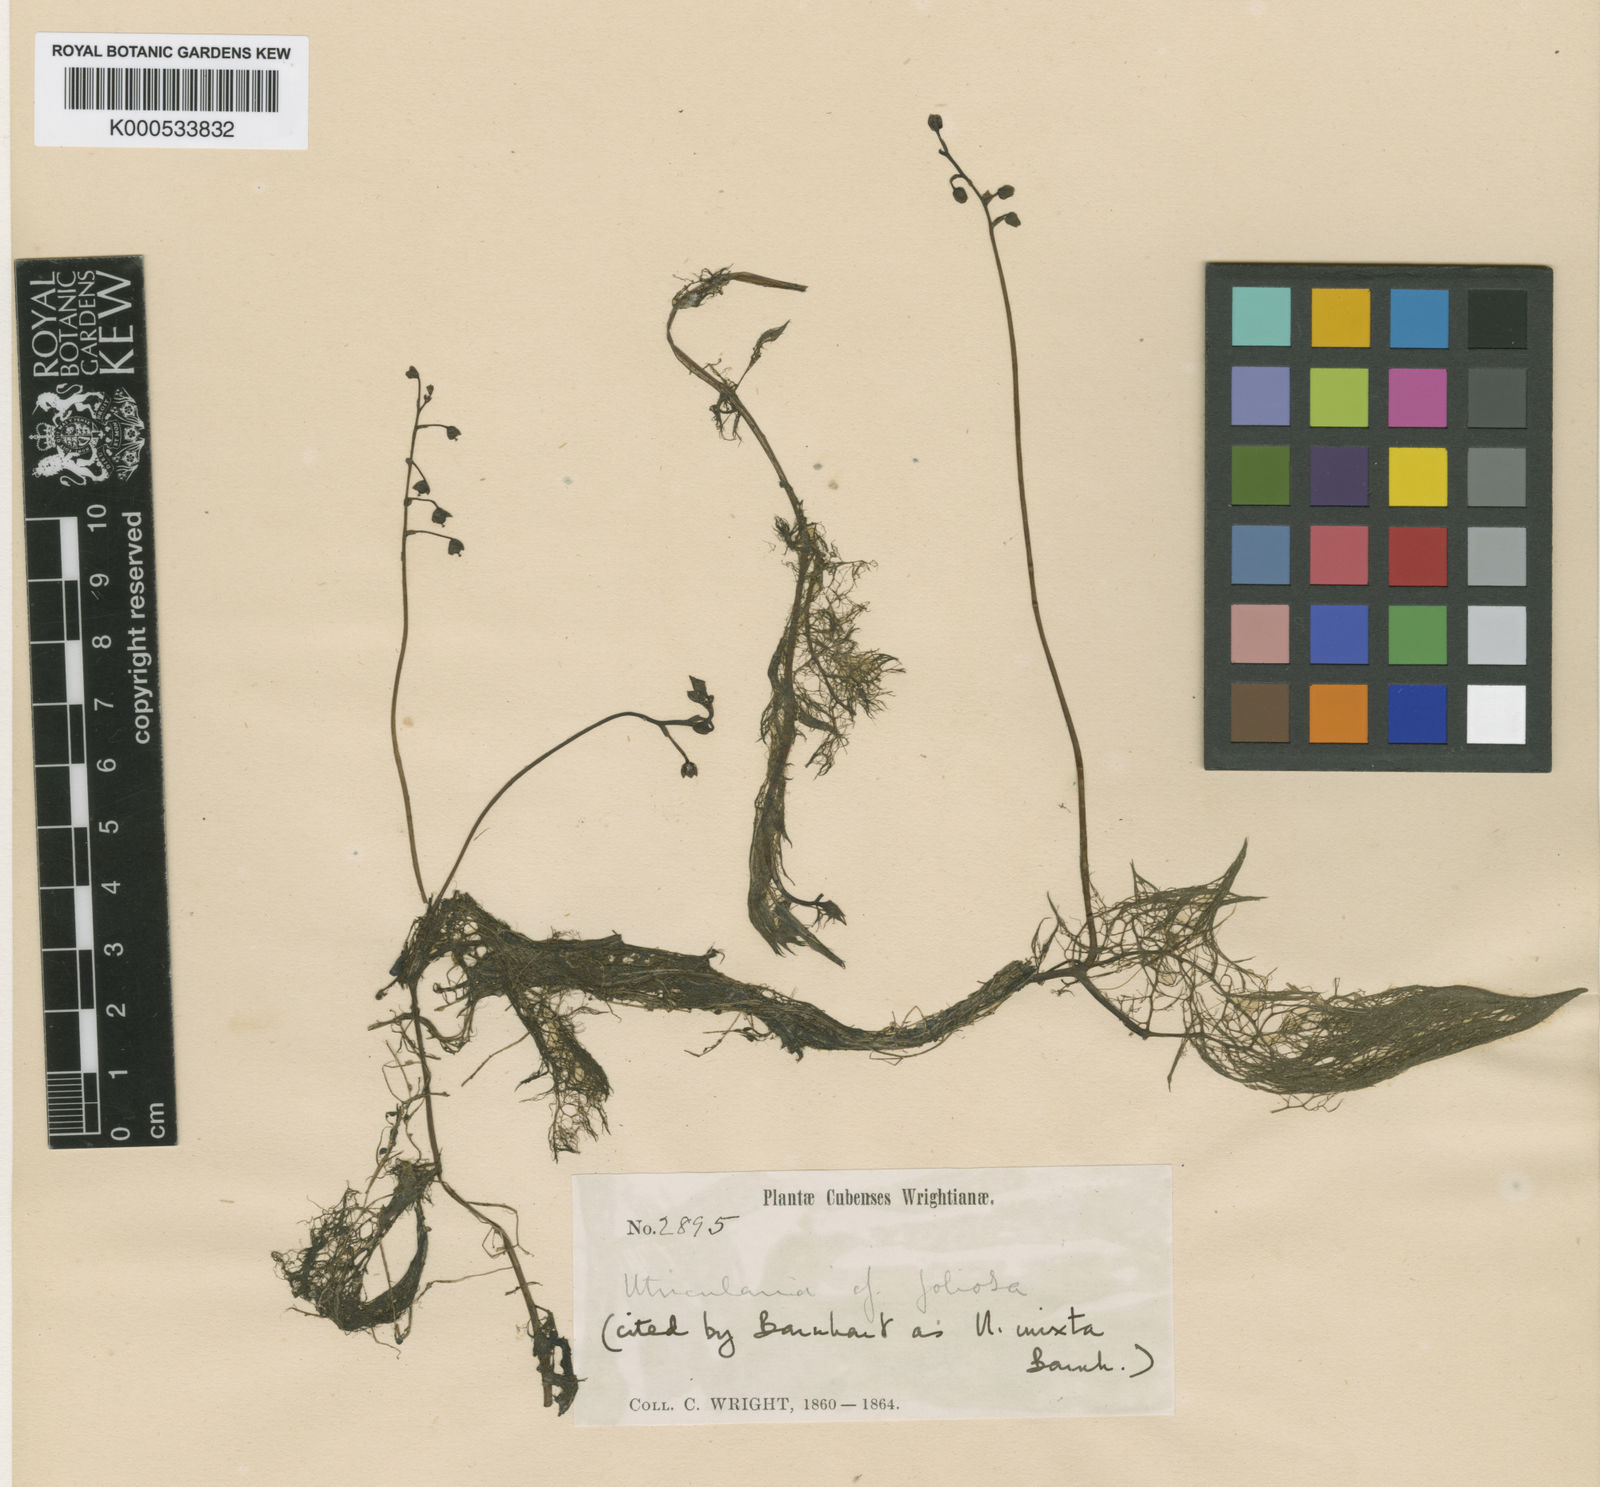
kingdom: Plantae
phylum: Tracheophyta
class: Magnoliopsida
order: Lamiales
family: Lentibulariaceae
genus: Utricularia
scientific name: Utricularia foliosa
